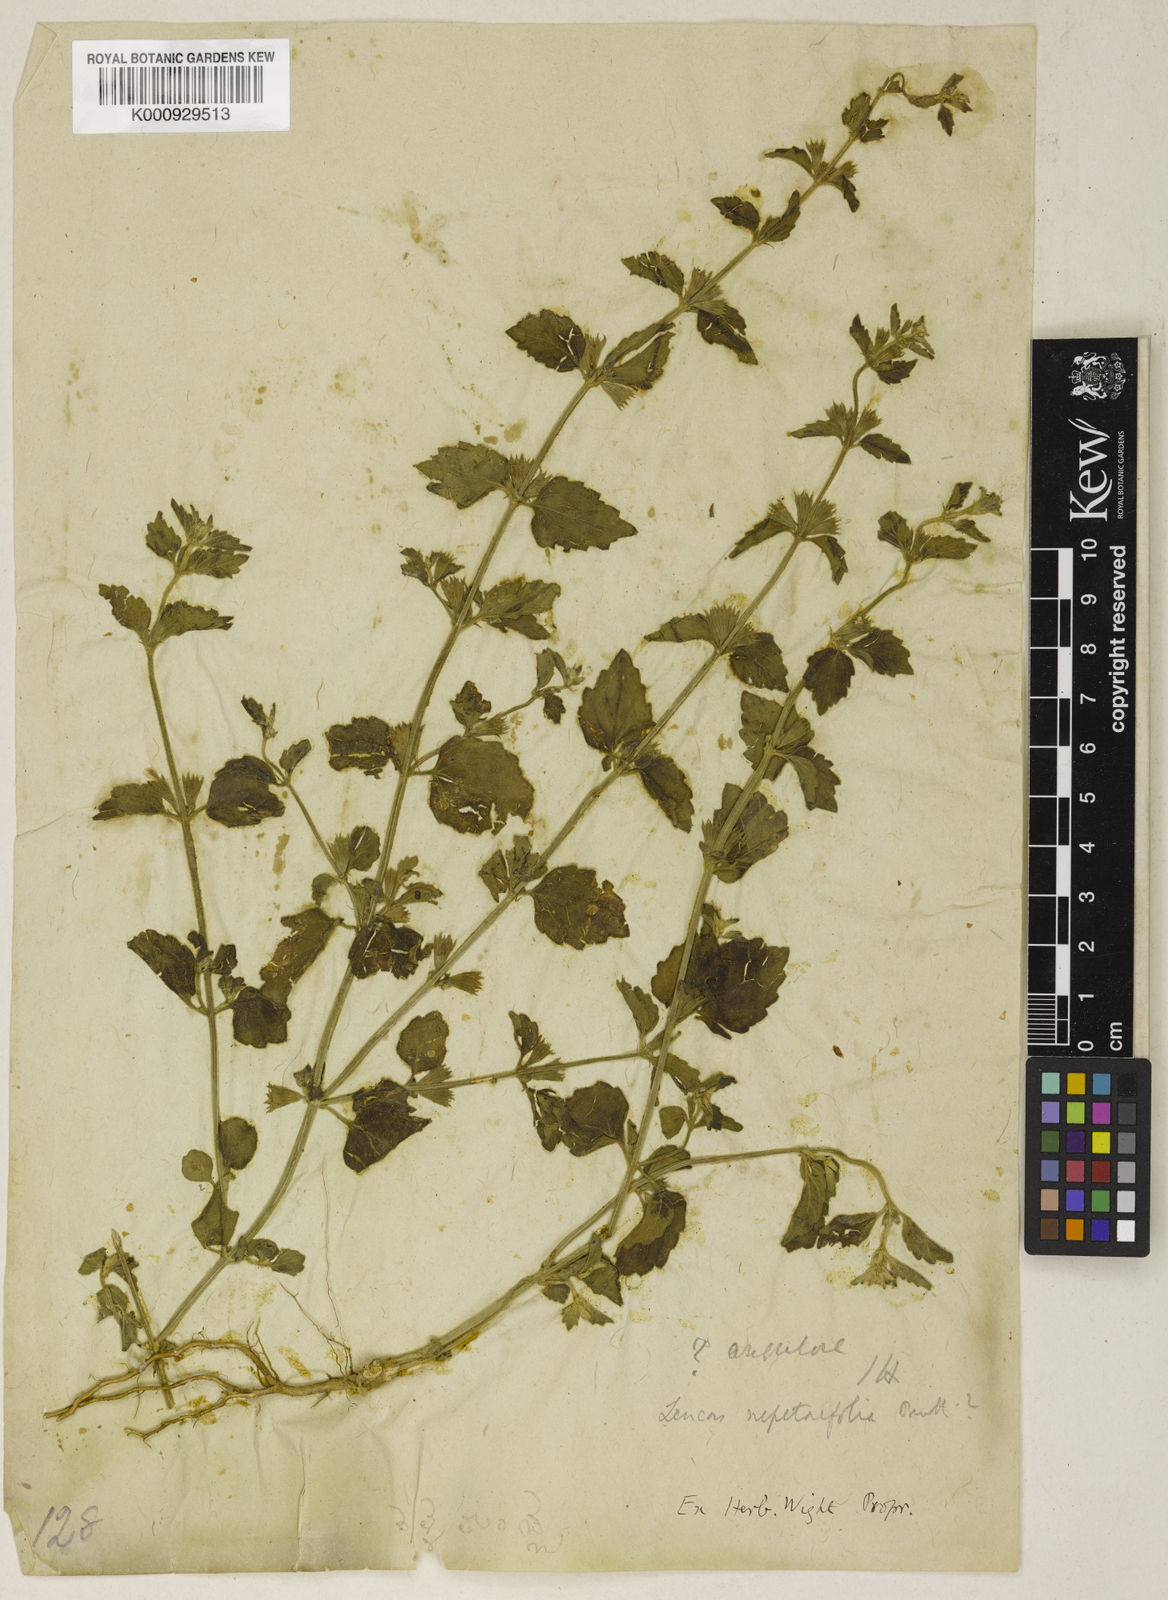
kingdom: Plantae
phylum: Tracheophyta
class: Magnoliopsida
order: Lamiales
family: Lamiaceae
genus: Leucas
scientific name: Leucas angularis
